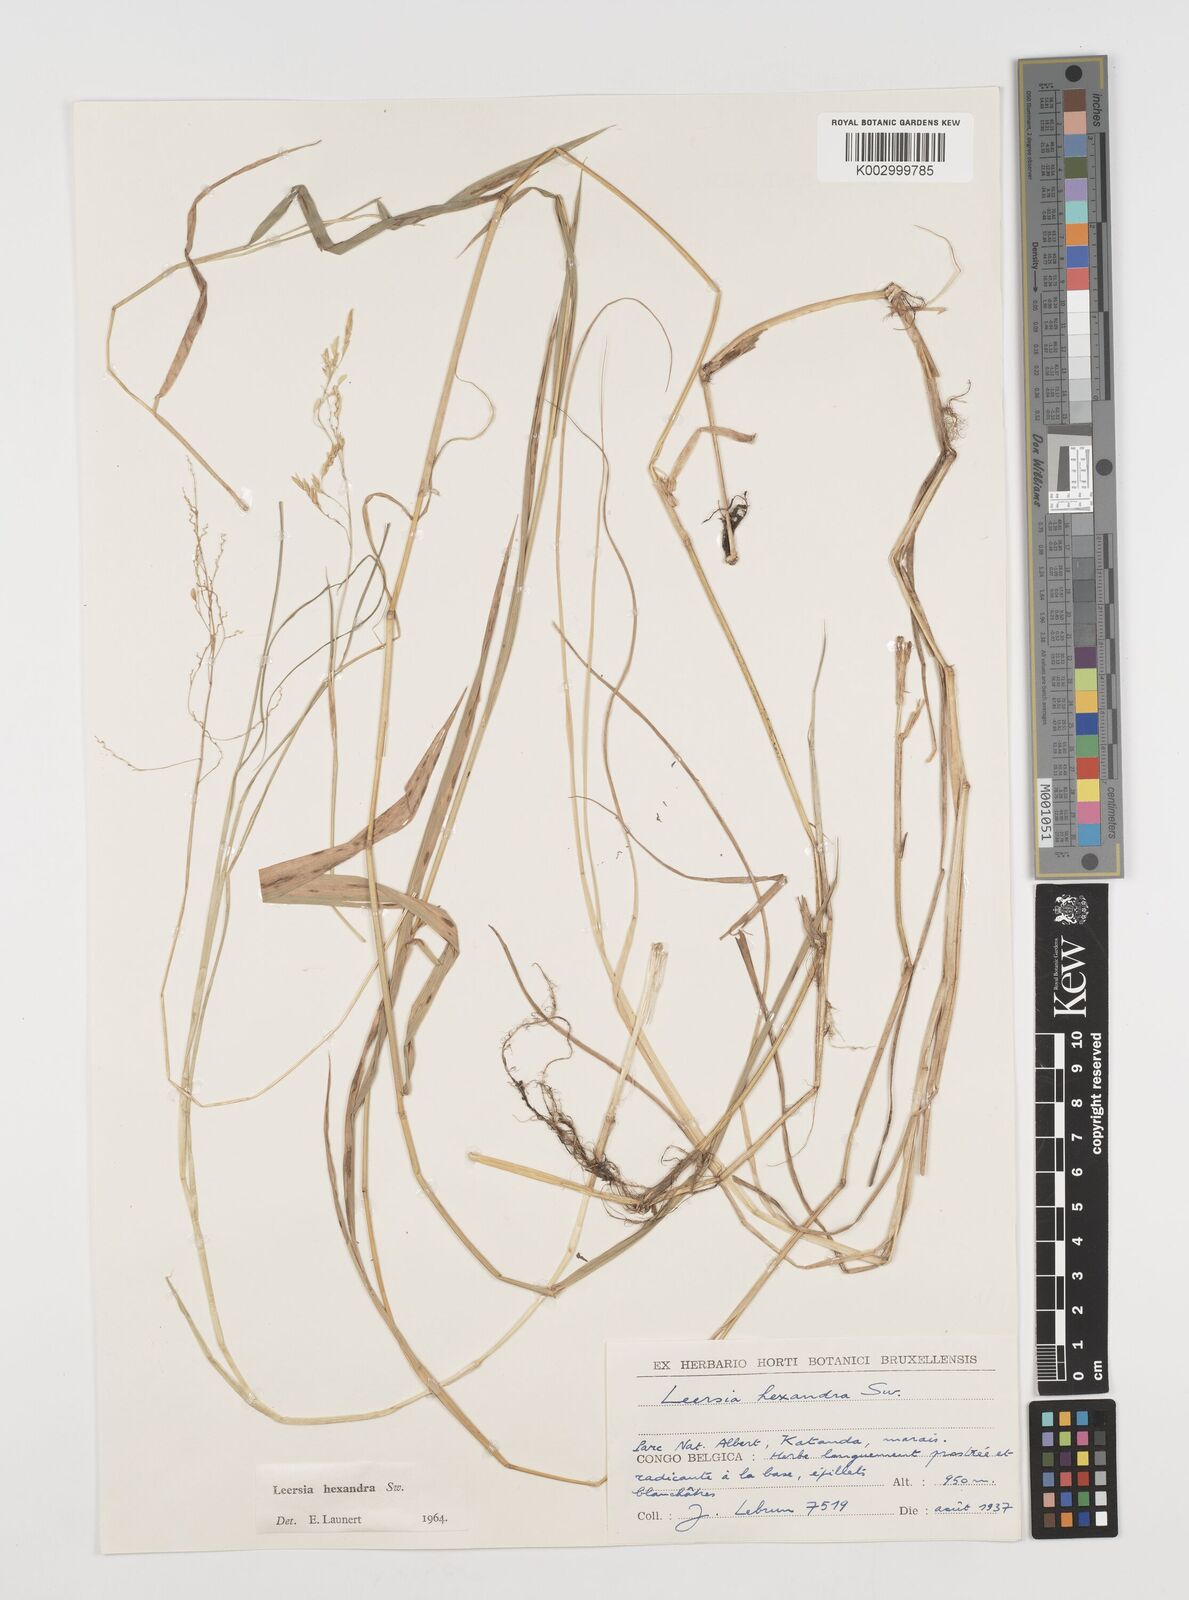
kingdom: Plantae
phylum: Tracheophyta
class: Liliopsida
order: Poales
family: Poaceae
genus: Leersia
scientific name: Leersia hexandra
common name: Southern cut grass
